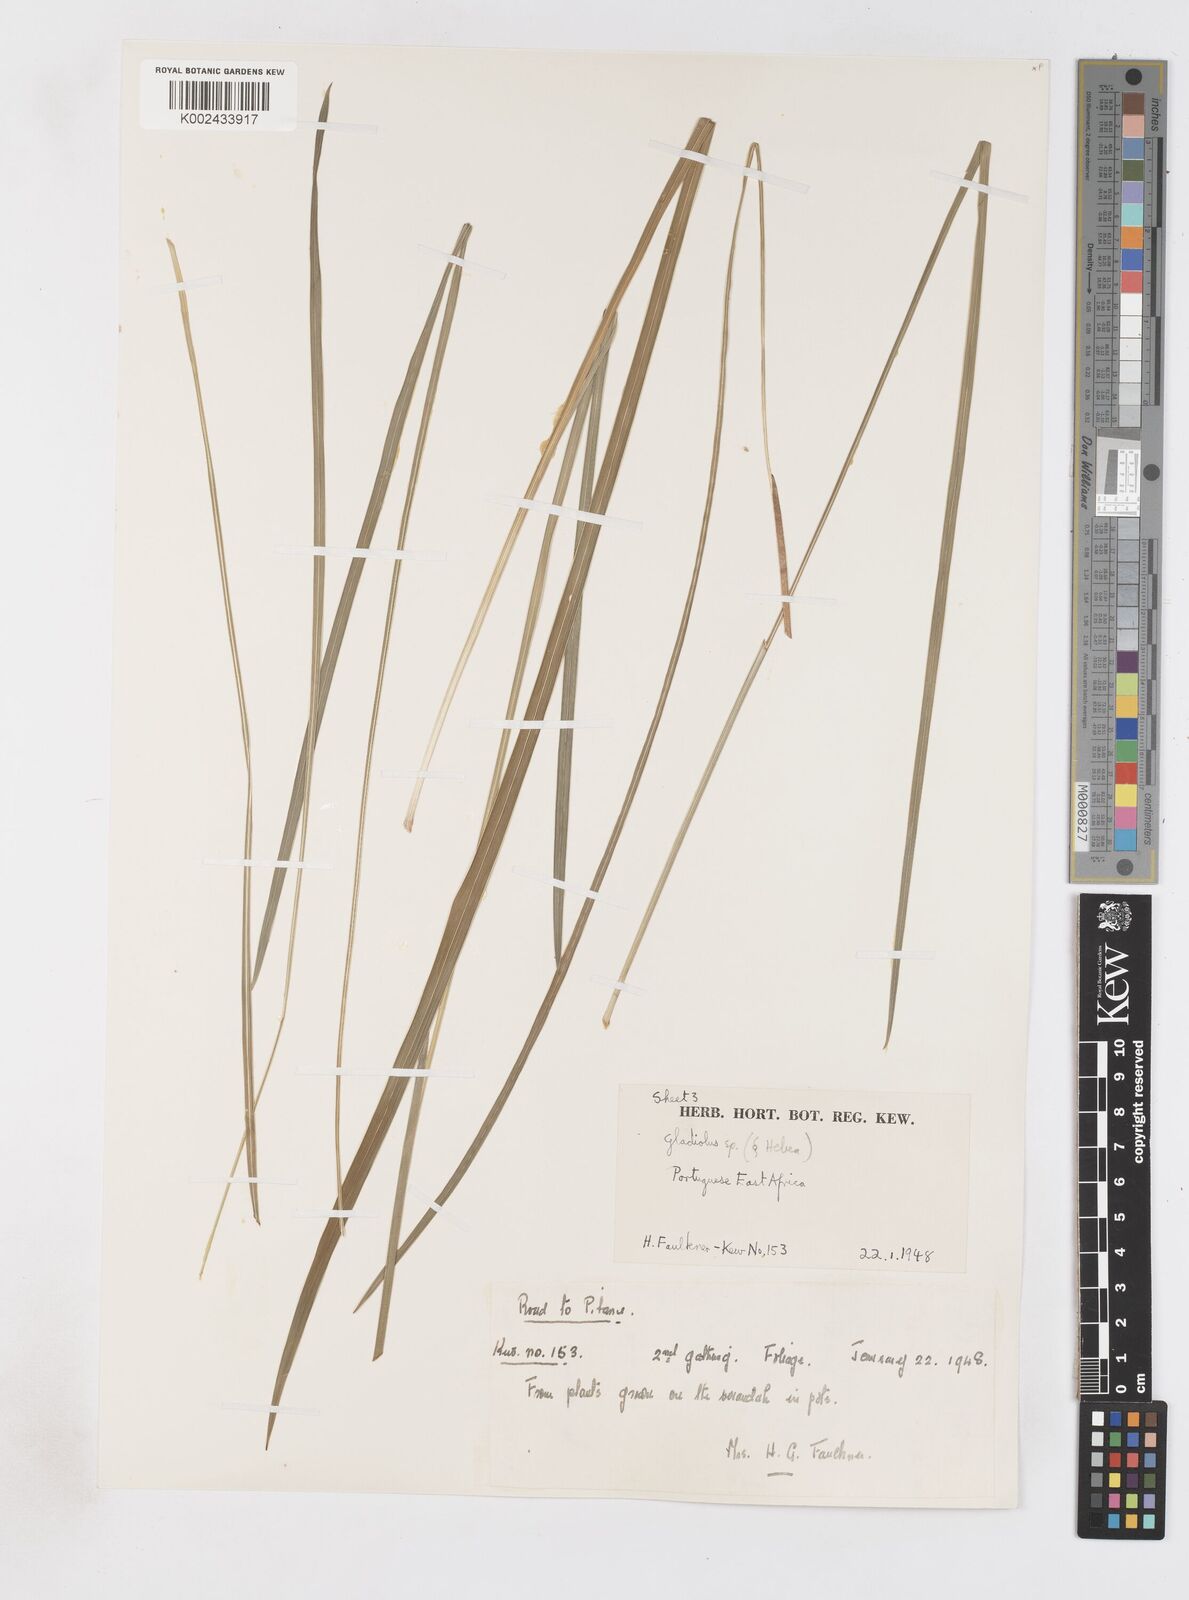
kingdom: Plantae
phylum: Tracheophyta
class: Liliopsida
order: Asparagales
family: Iridaceae
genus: Gladiolus
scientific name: Gladiolus atropurpureus
